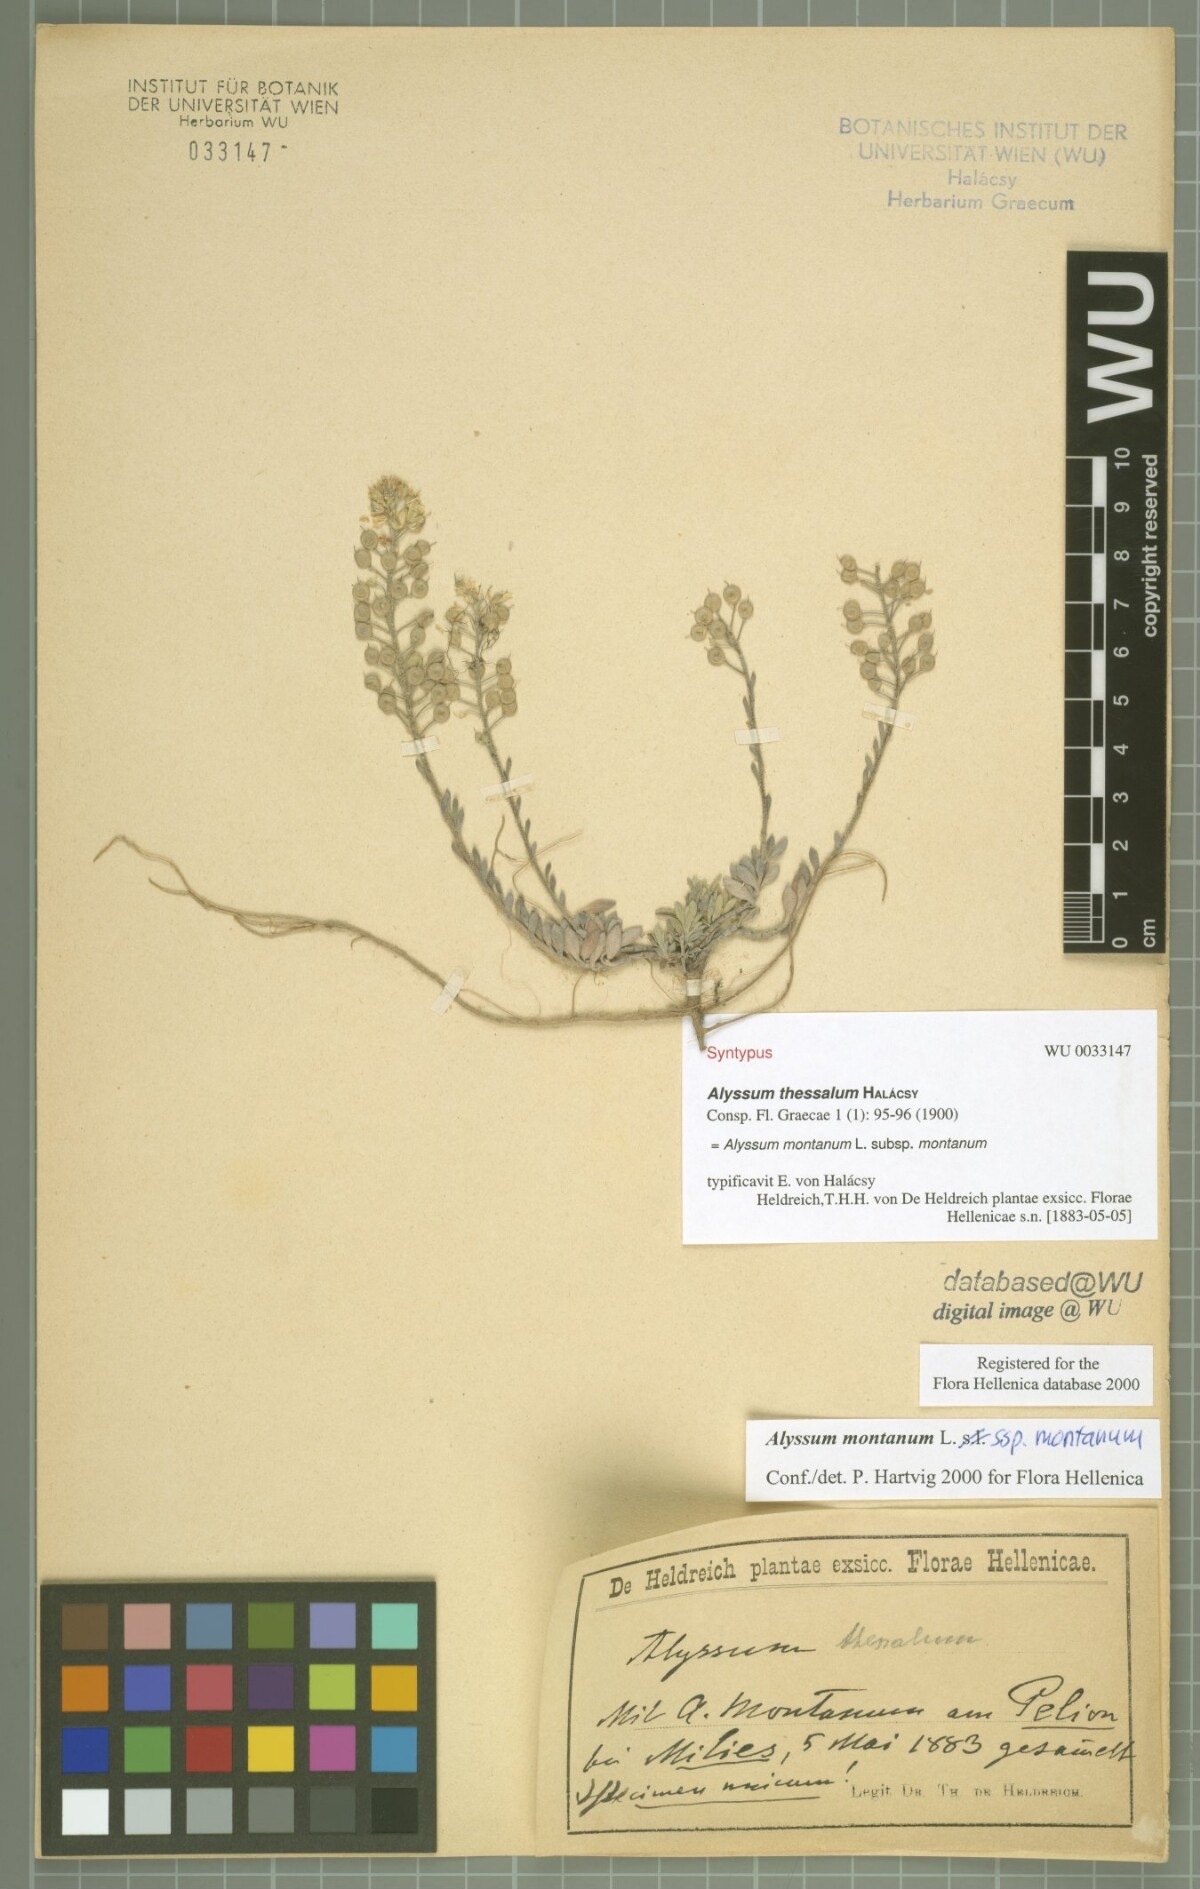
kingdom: Plantae
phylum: Tracheophyta
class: Magnoliopsida
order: Brassicales
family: Brassicaceae
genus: Alyssum
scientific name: Alyssum montanum
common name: Mountain alison
